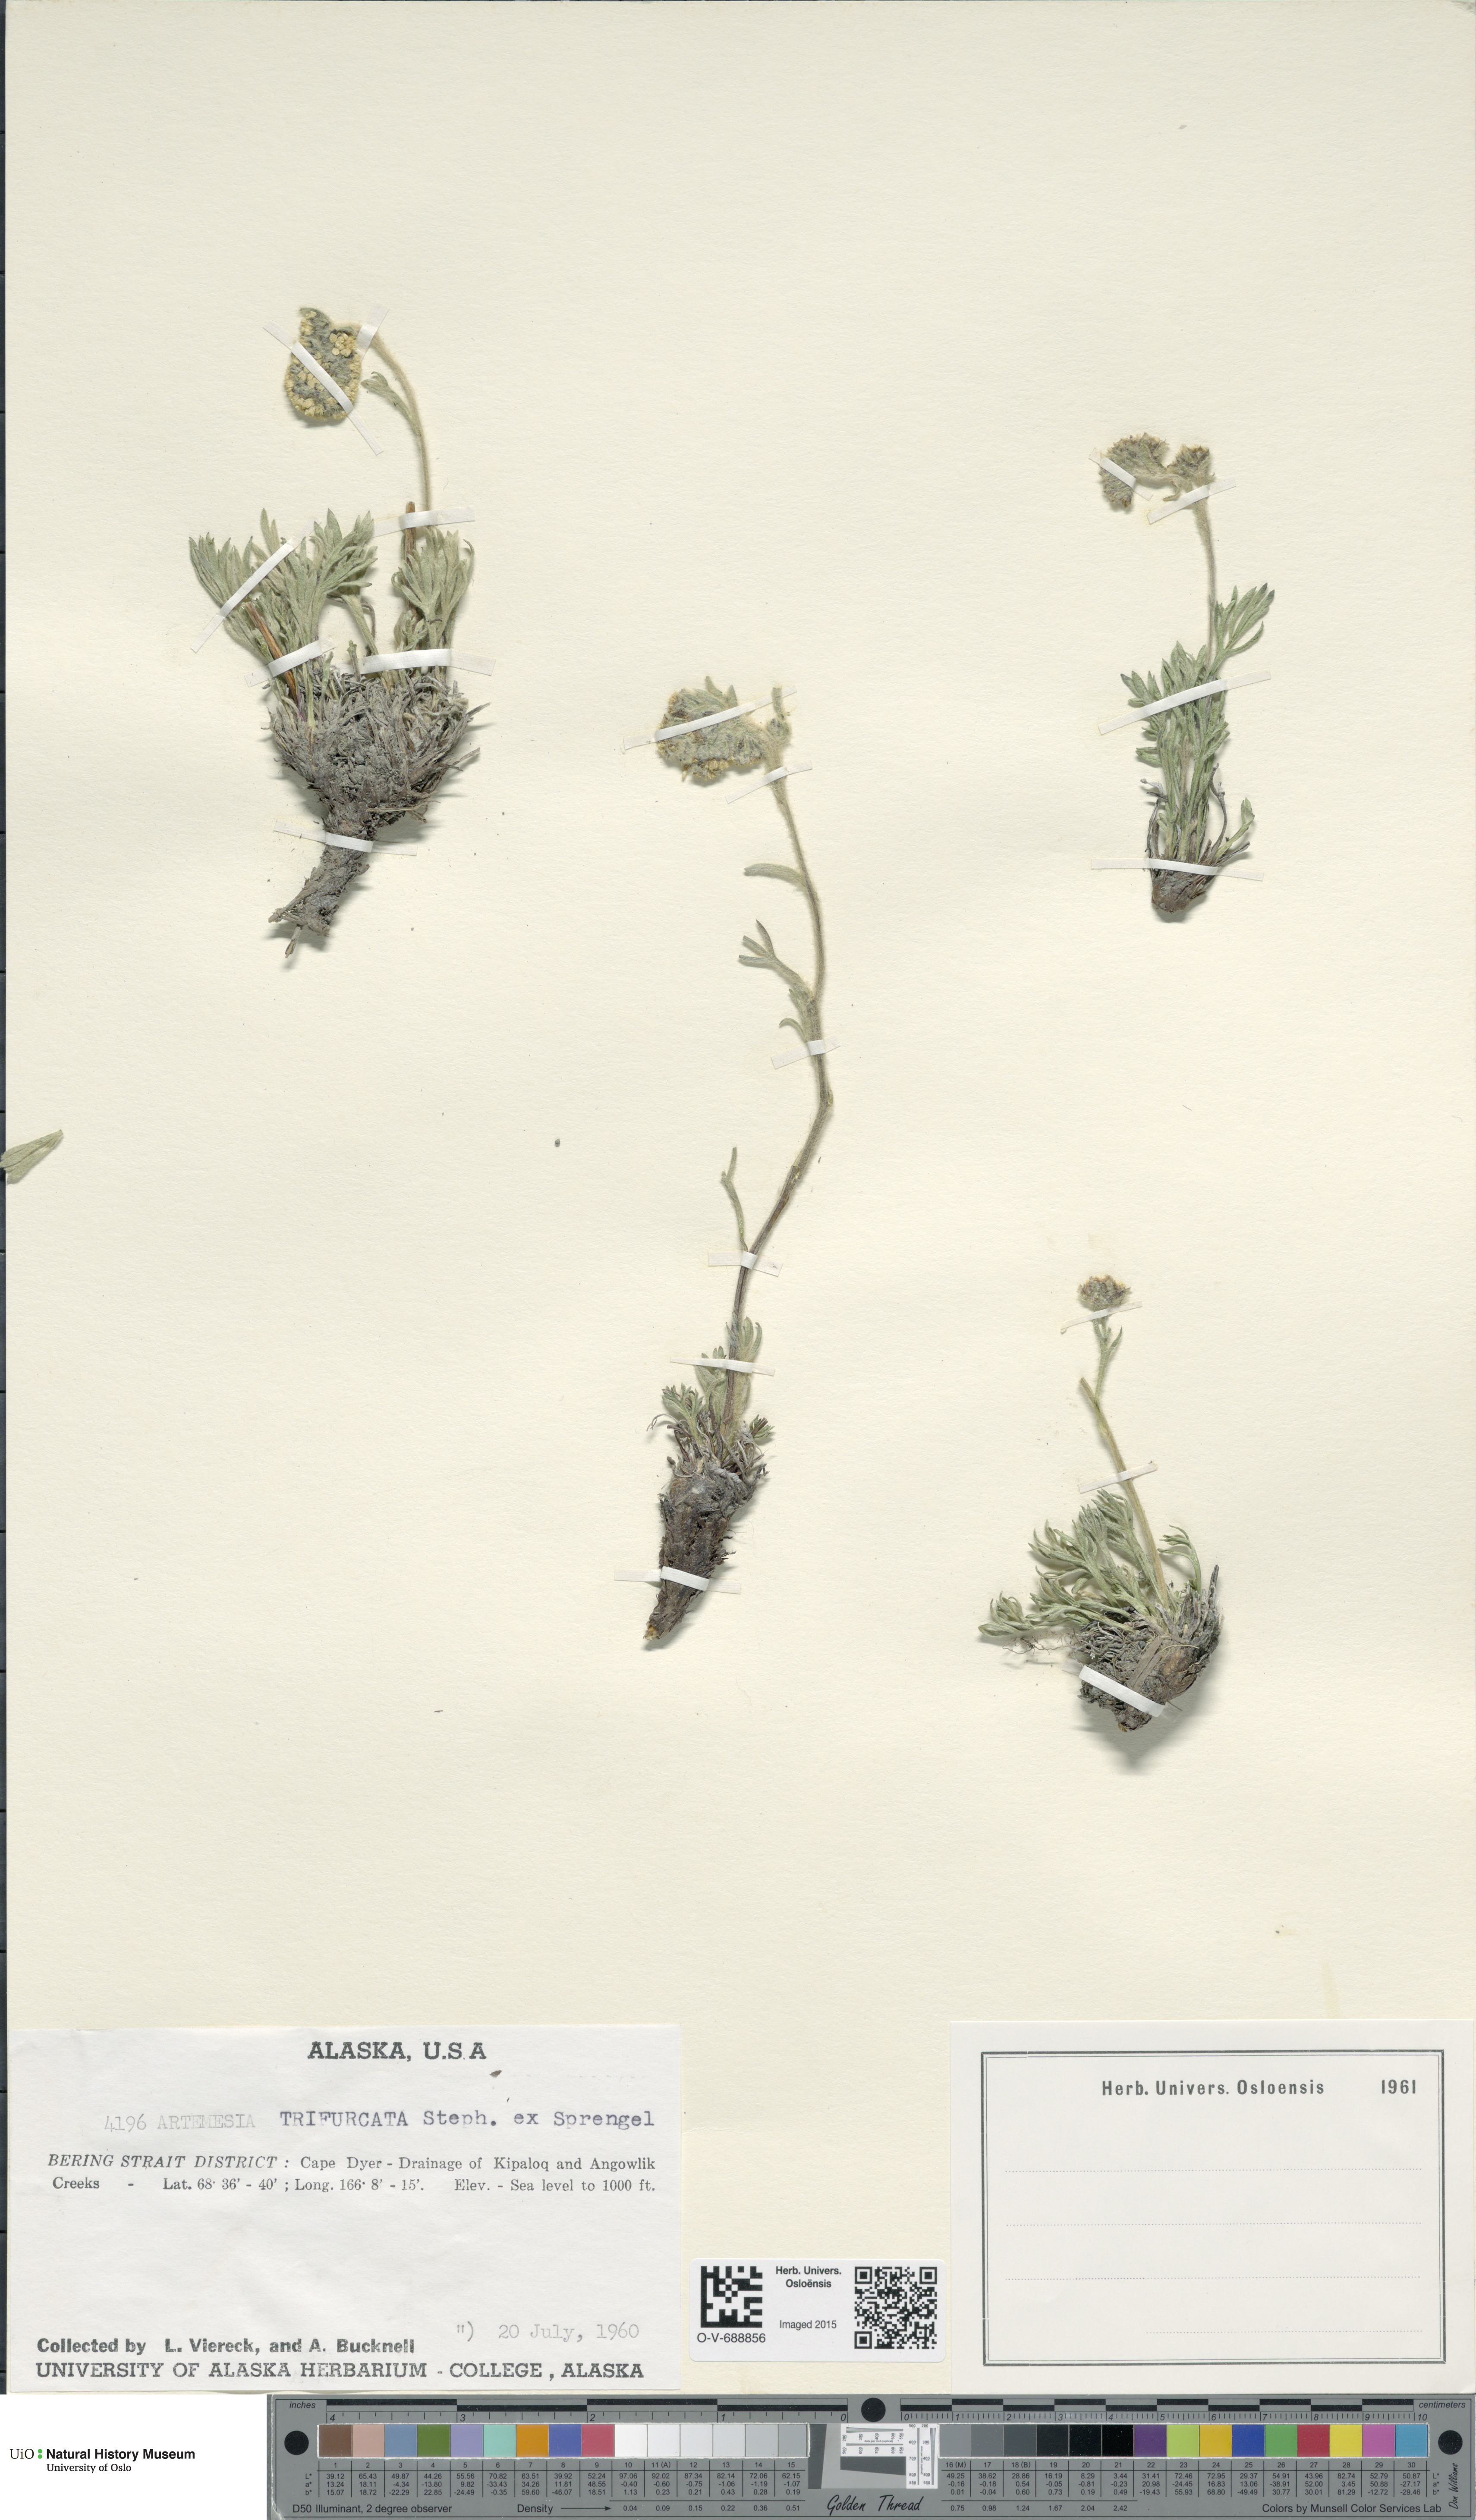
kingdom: Plantae
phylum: Tracheophyta
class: Magnoliopsida
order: Asterales
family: Asteraceae
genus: Artemisia
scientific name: Artemisia furcata
